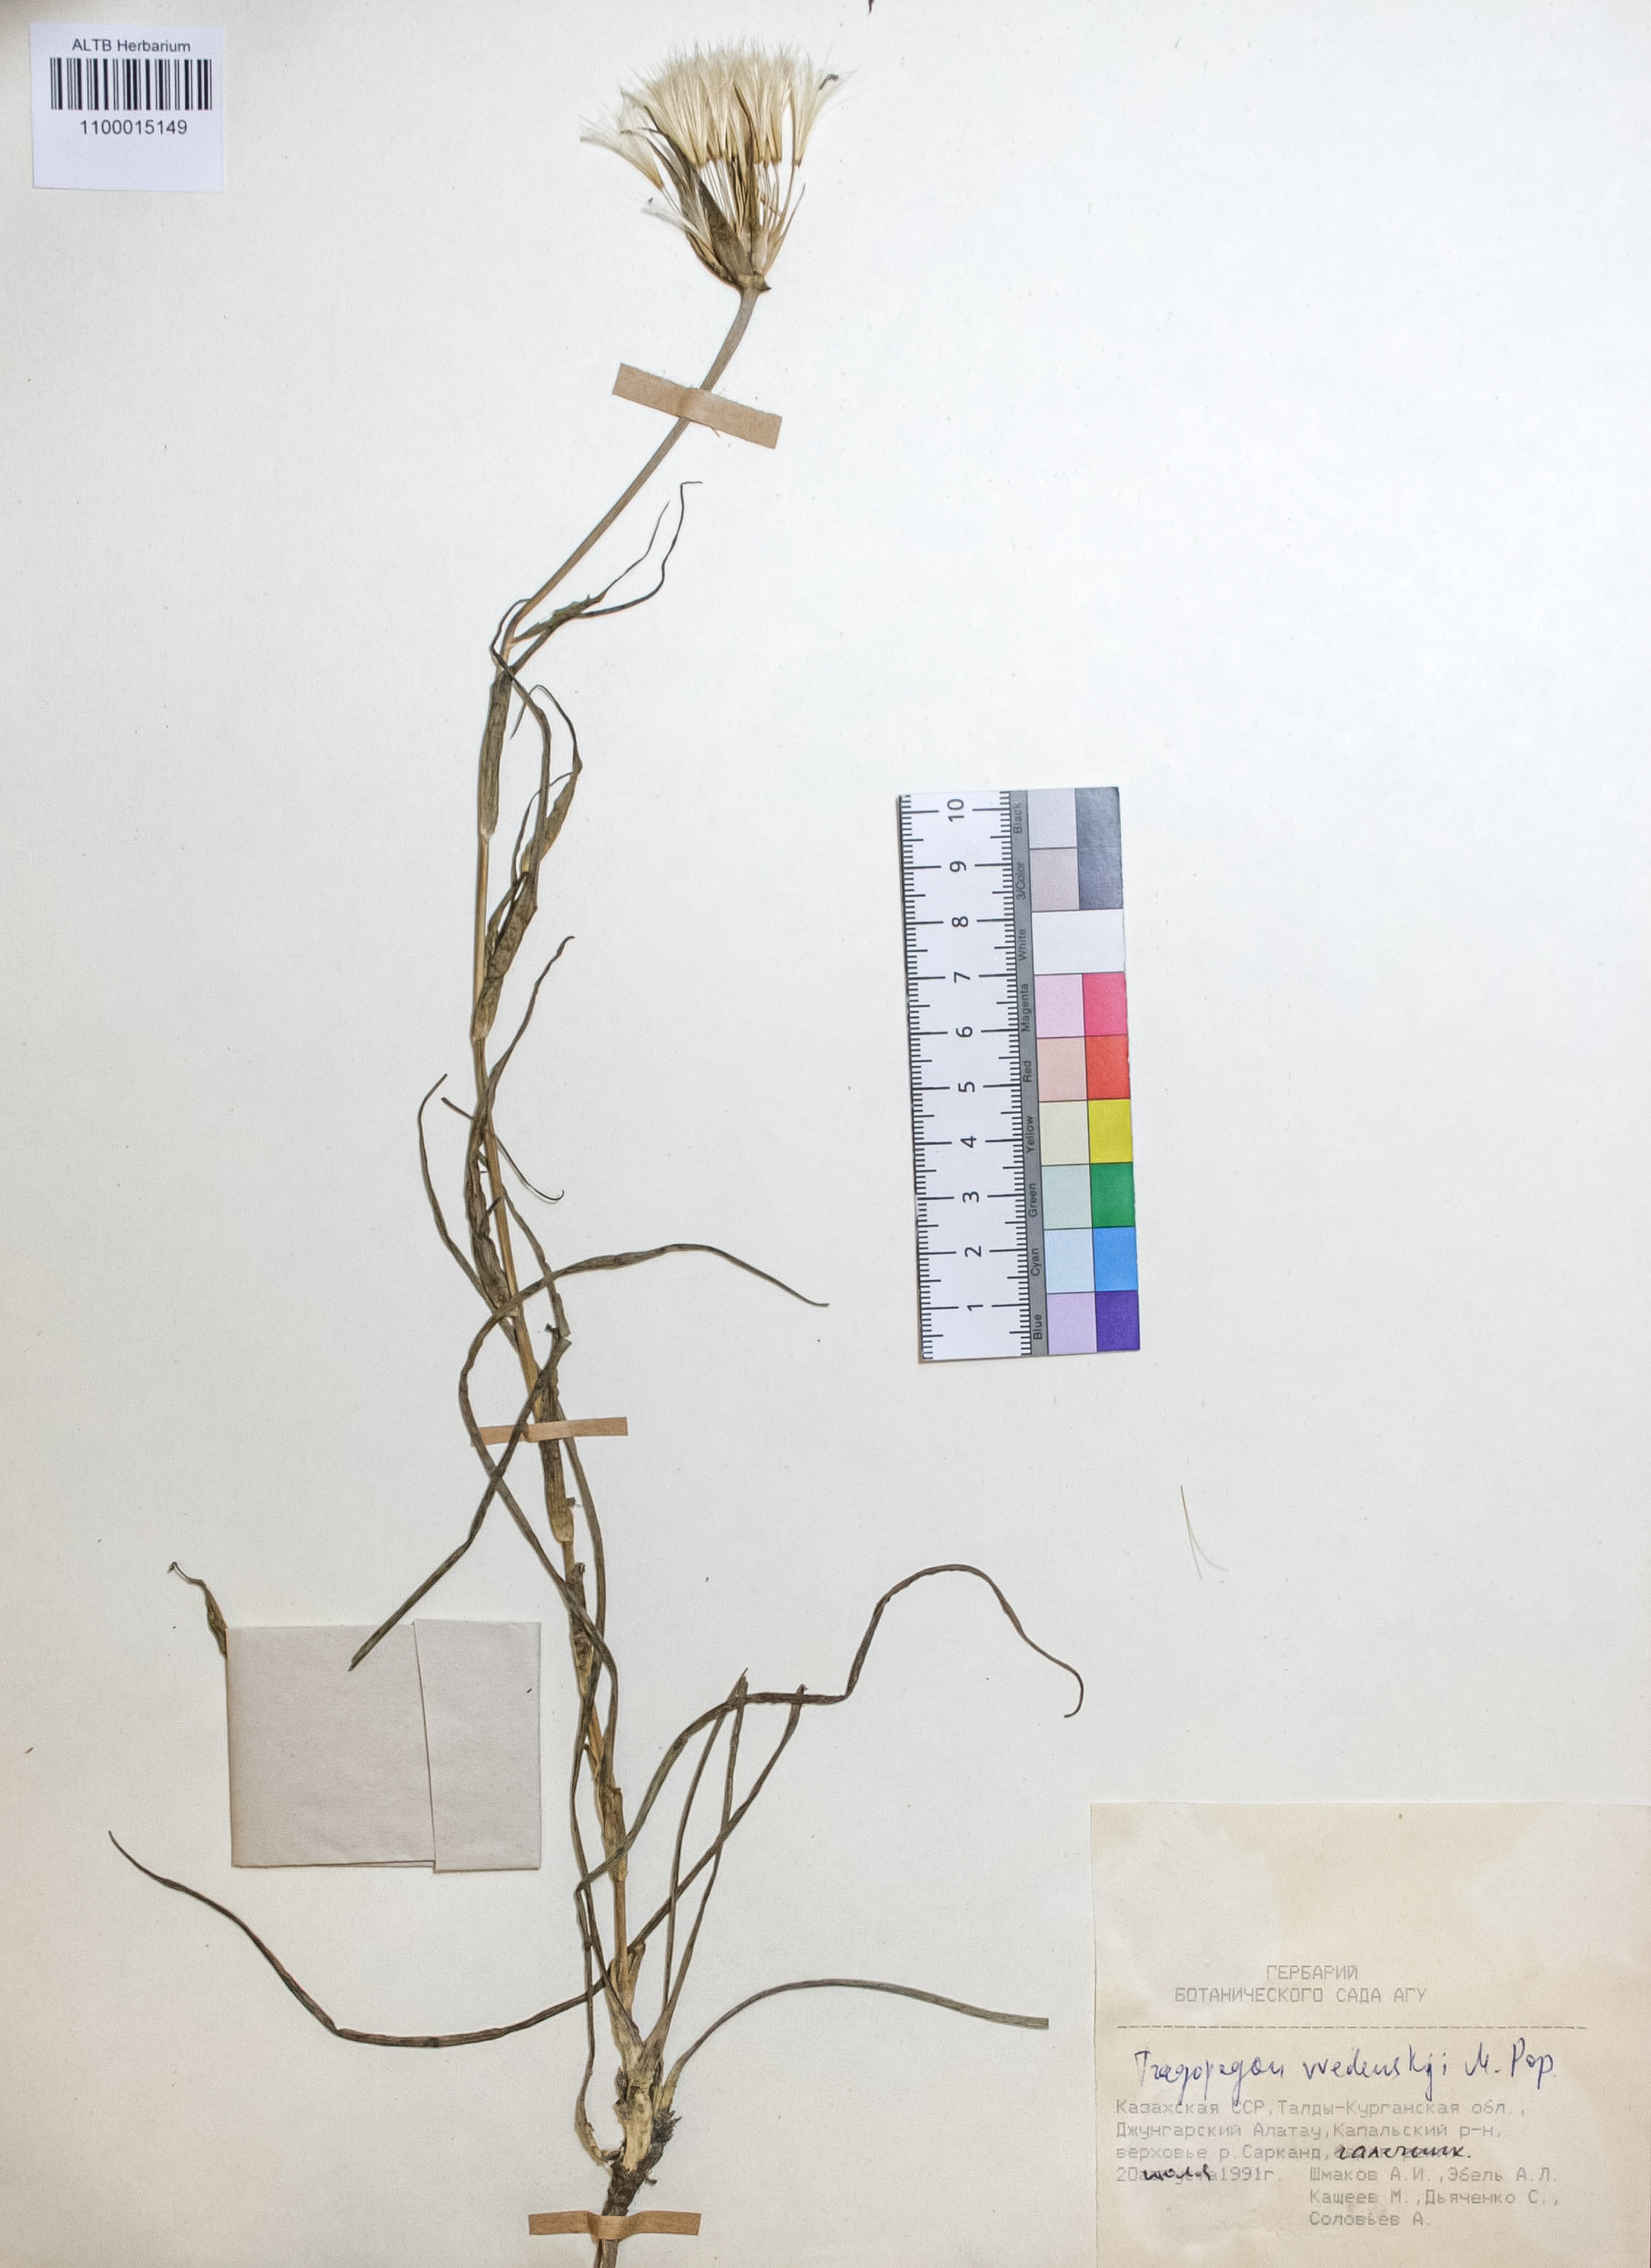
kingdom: Plantae
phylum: Tracheophyta
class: Magnoliopsida
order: Asterales
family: Asteraceae
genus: Tragopogon
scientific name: Tragopogon vvedenskyi
